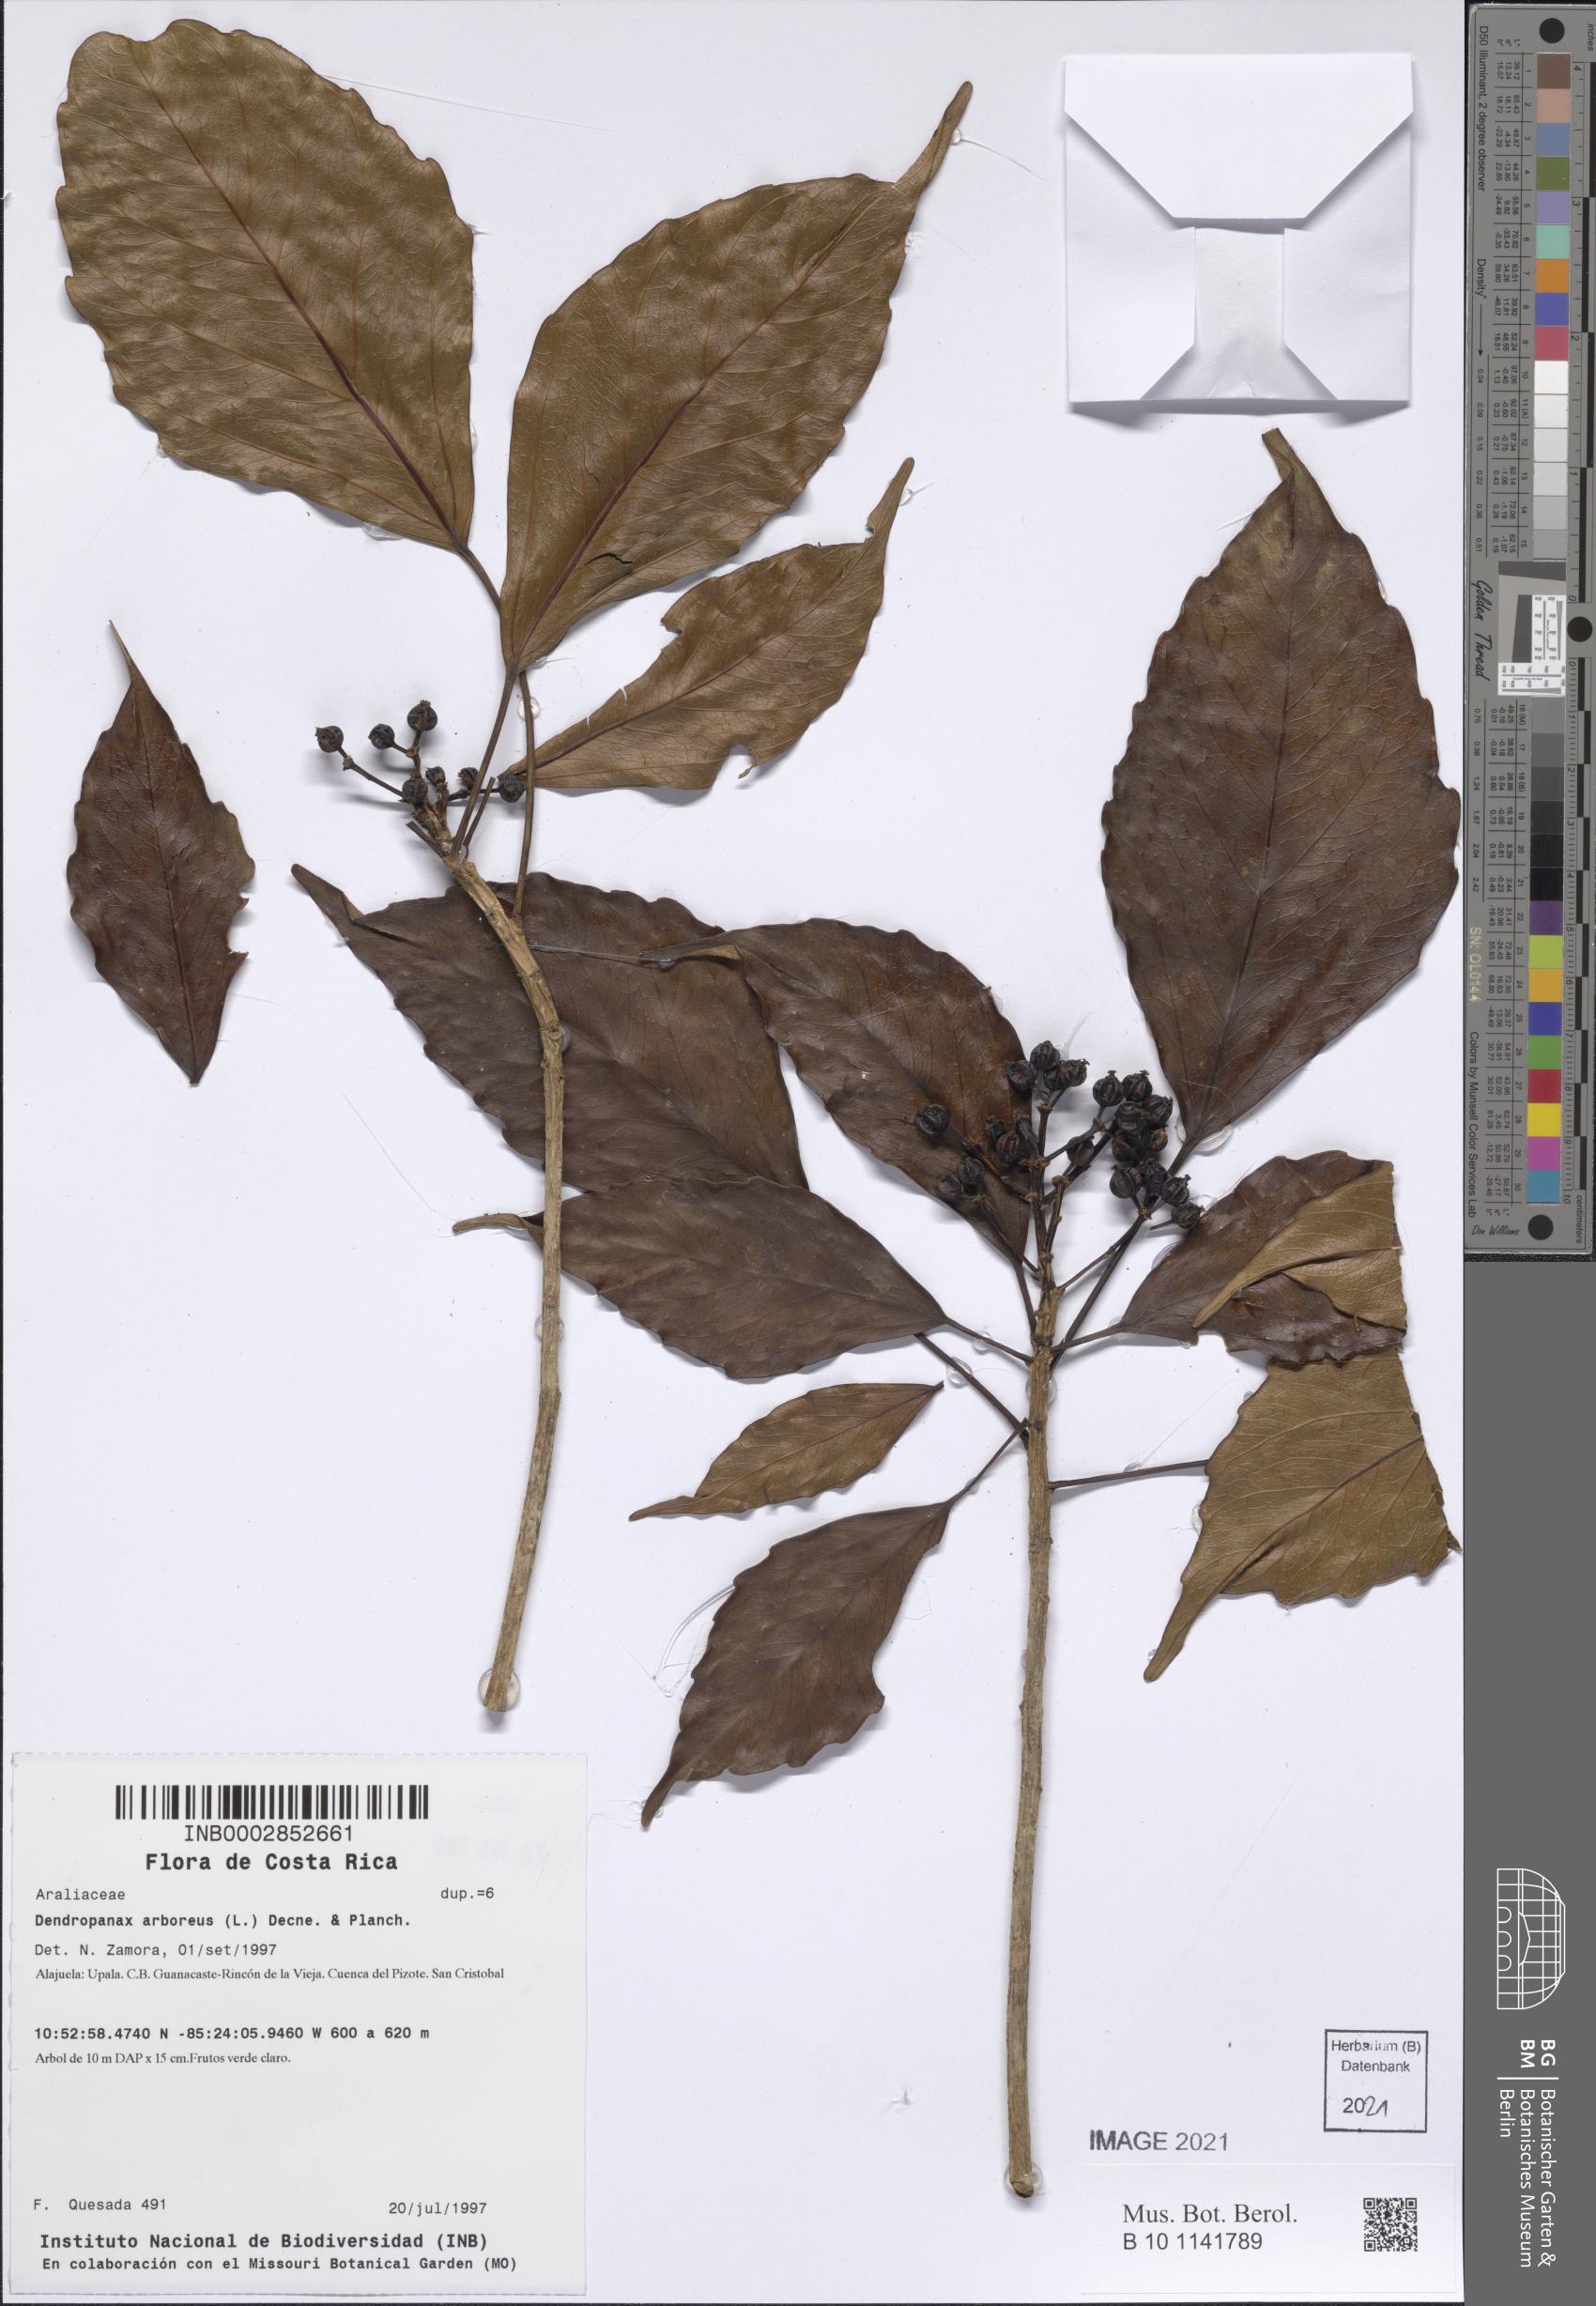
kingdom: Plantae
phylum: Tracheophyta
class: Magnoliopsida
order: Apiales
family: Araliaceae
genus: Dendropanax
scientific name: Dendropanax arboreus
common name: Potato-wood
